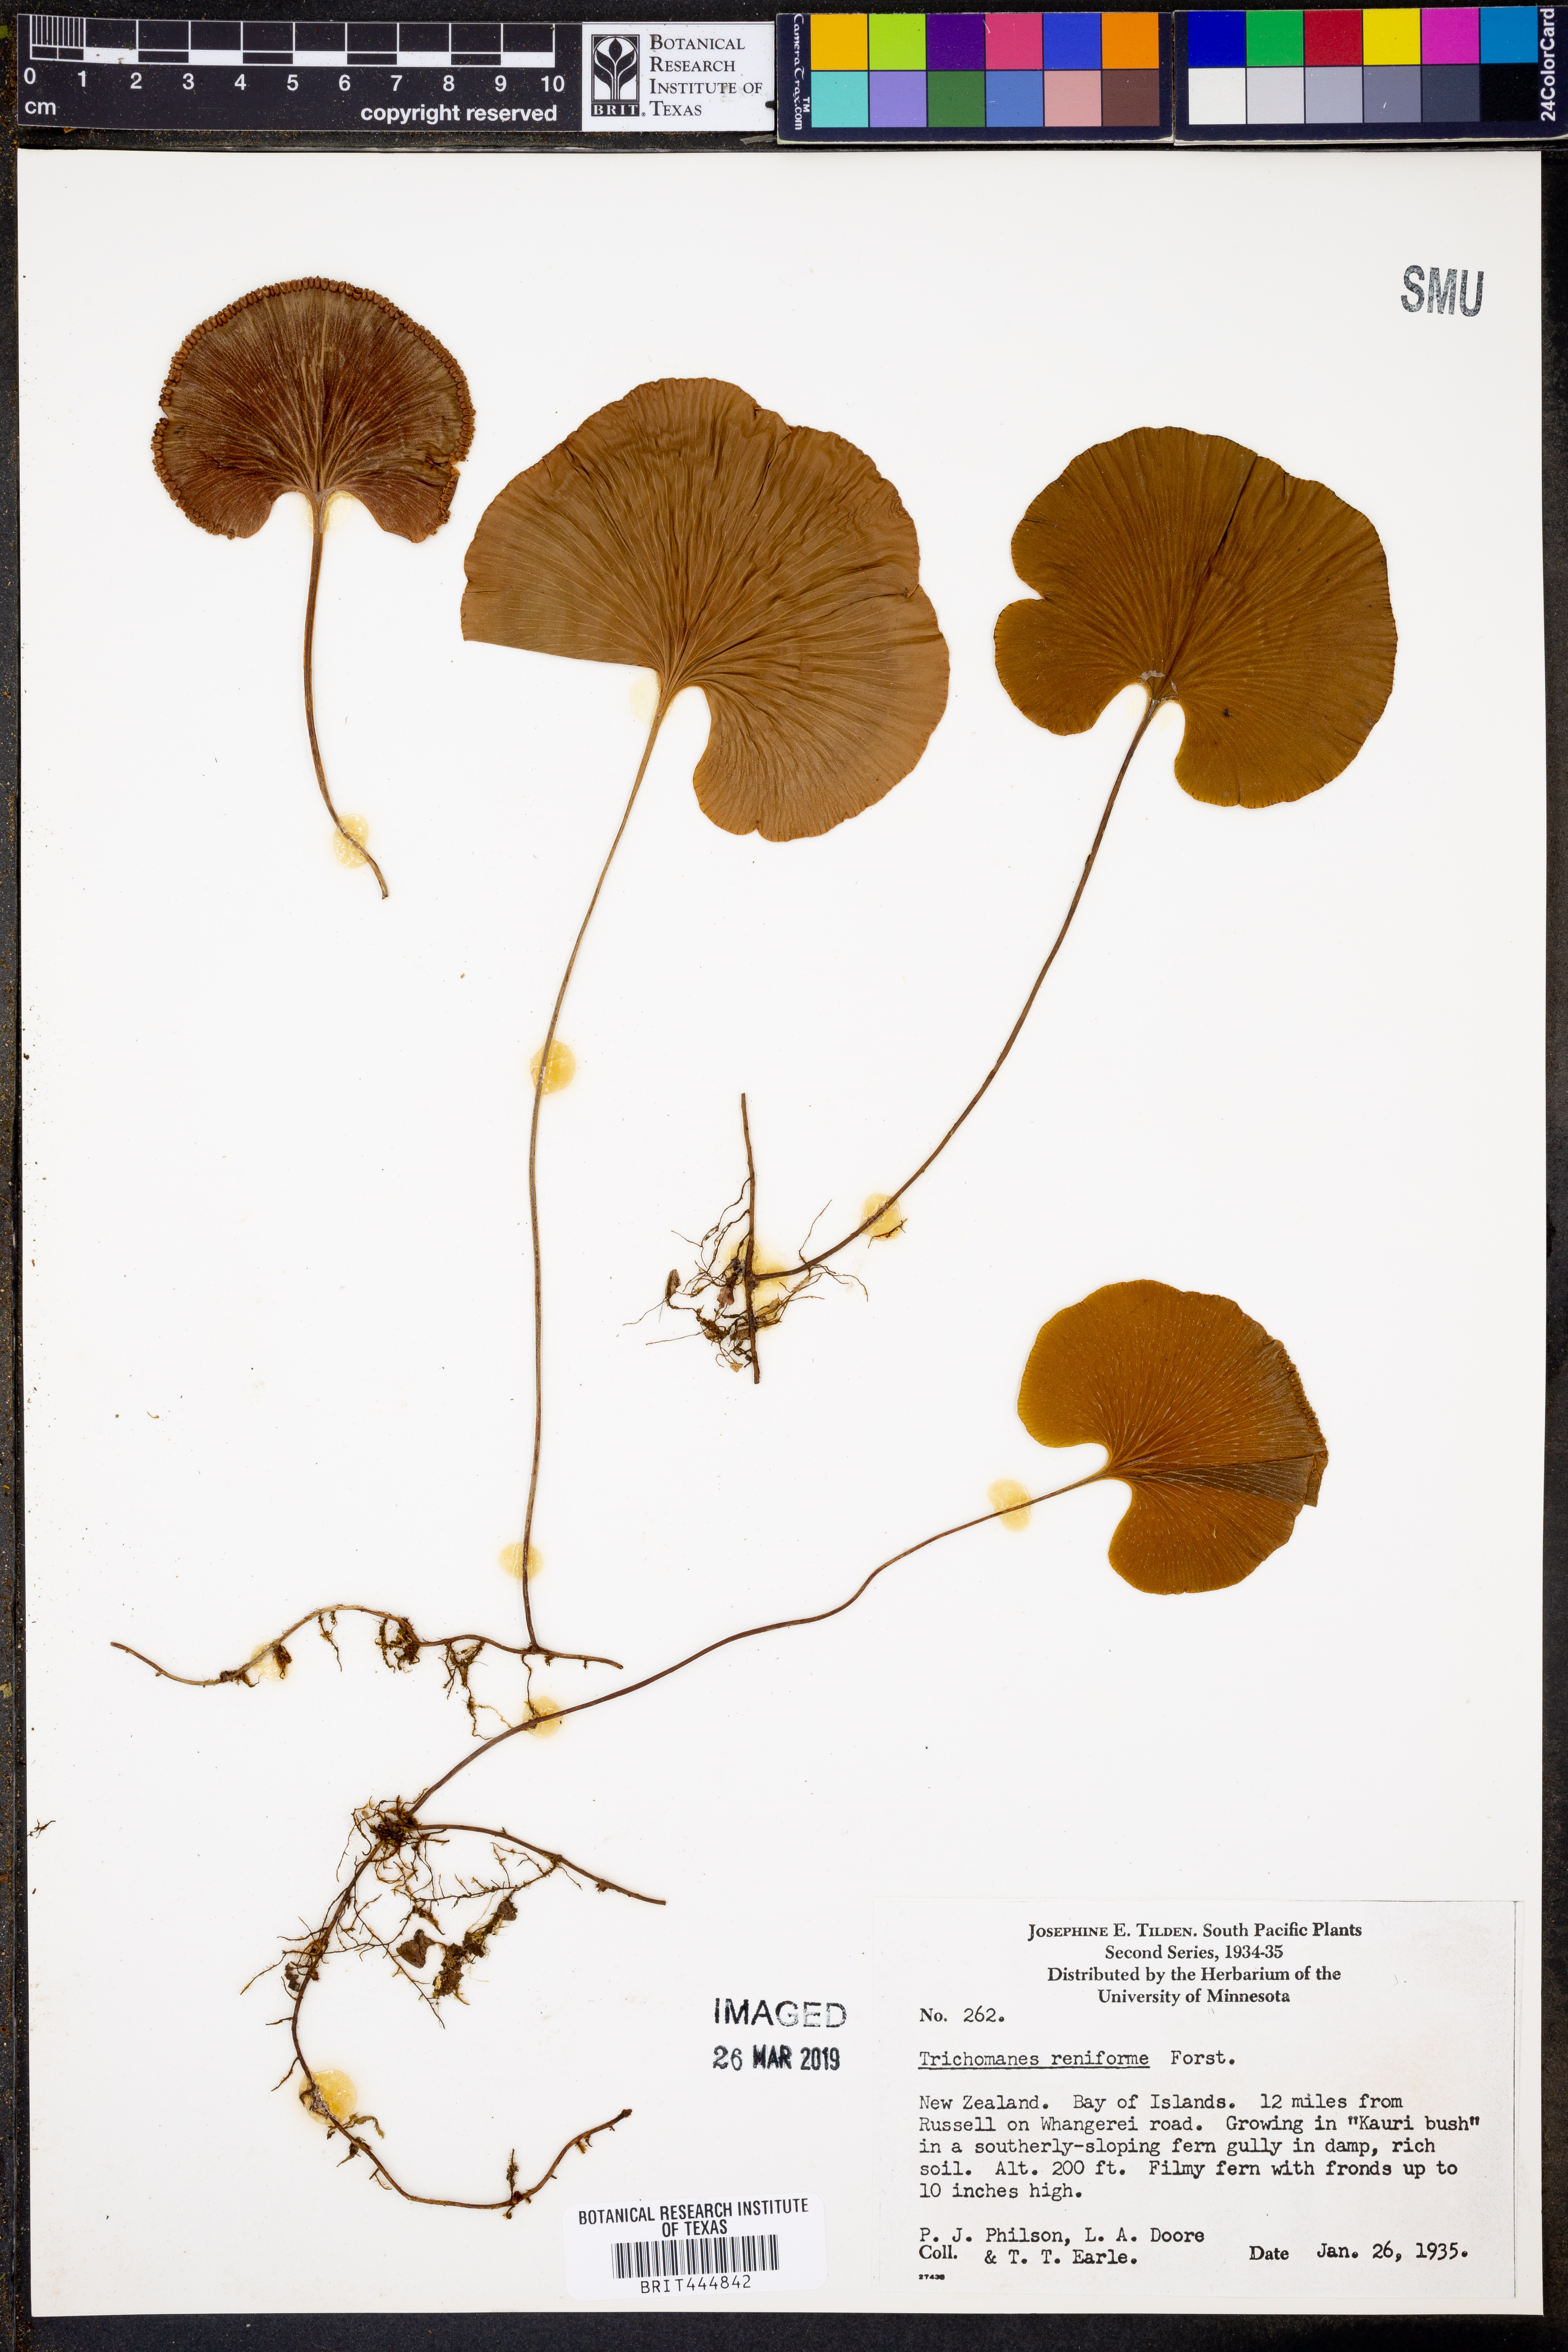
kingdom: Plantae
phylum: Tracheophyta
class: Polypodiopsida
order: Hymenophyllales
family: Hymenophyllaceae
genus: Hymenophyllum
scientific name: Hymenophyllum nephrophyllum
